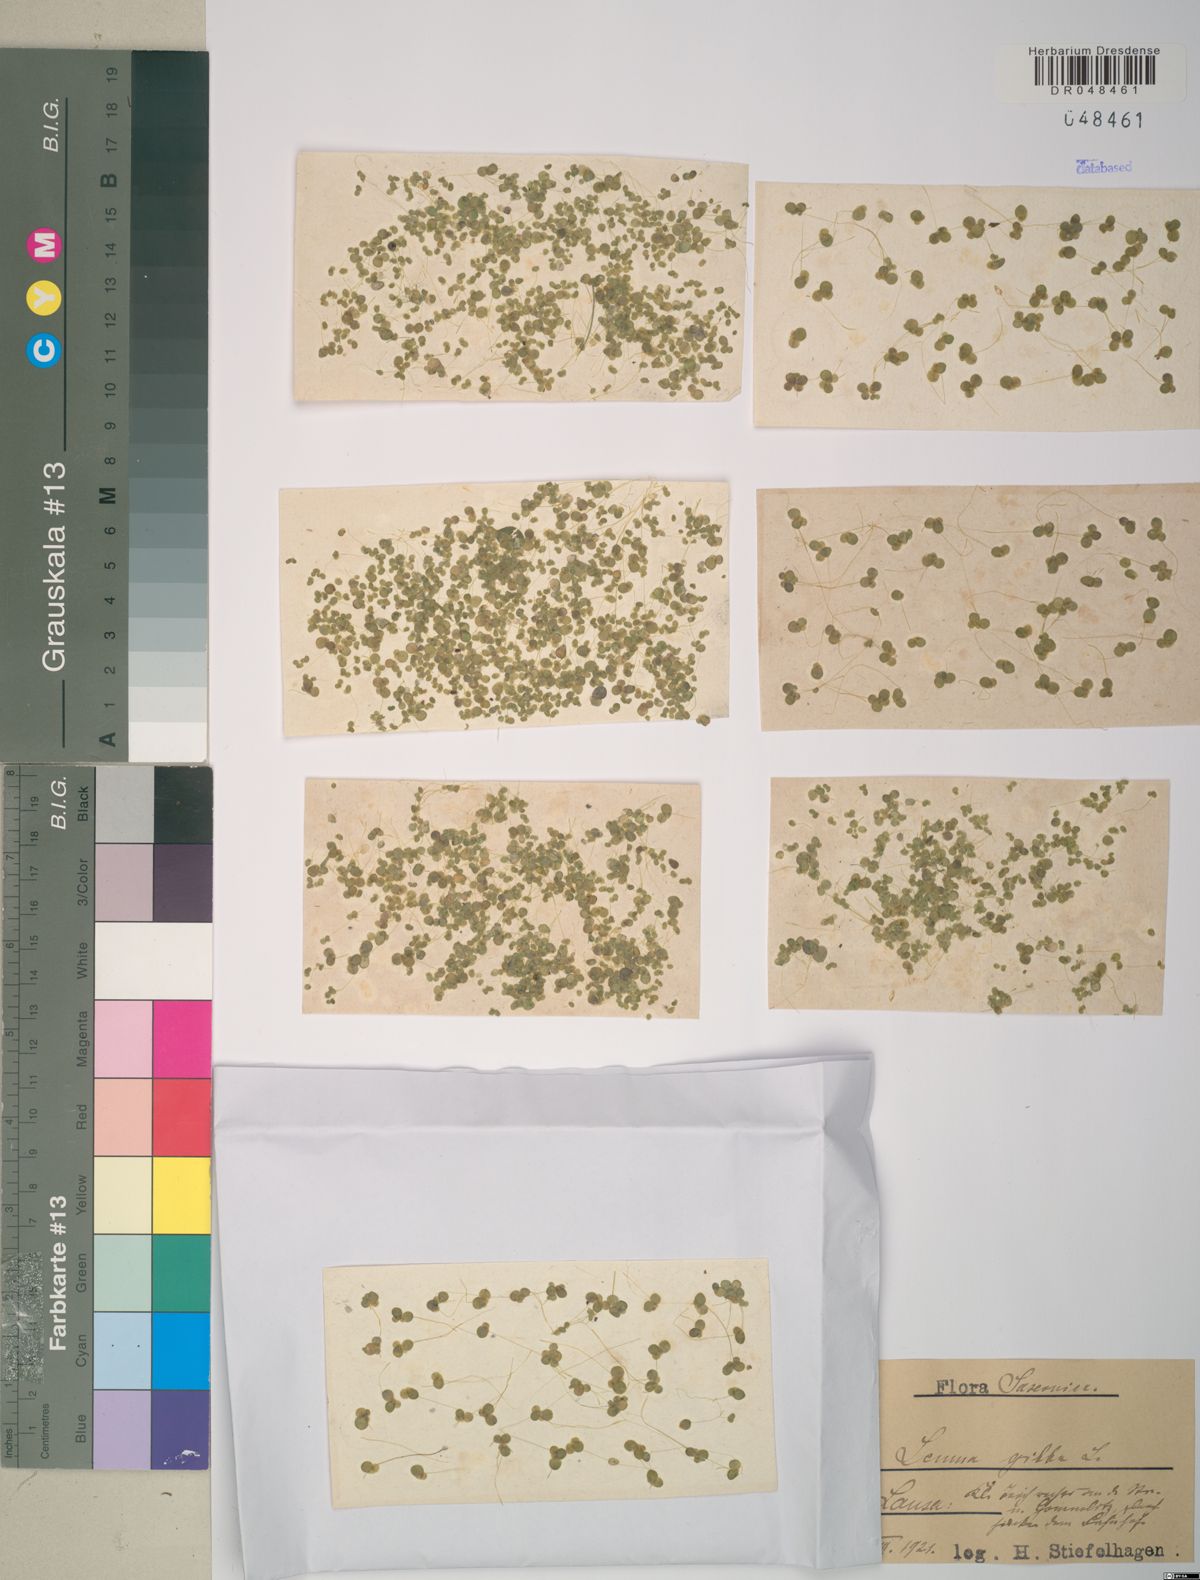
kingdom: Plantae
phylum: Tracheophyta
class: Liliopsida
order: Alismatales
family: Araceae
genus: Lemna
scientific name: Lemna gibba
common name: Fat duckweed
